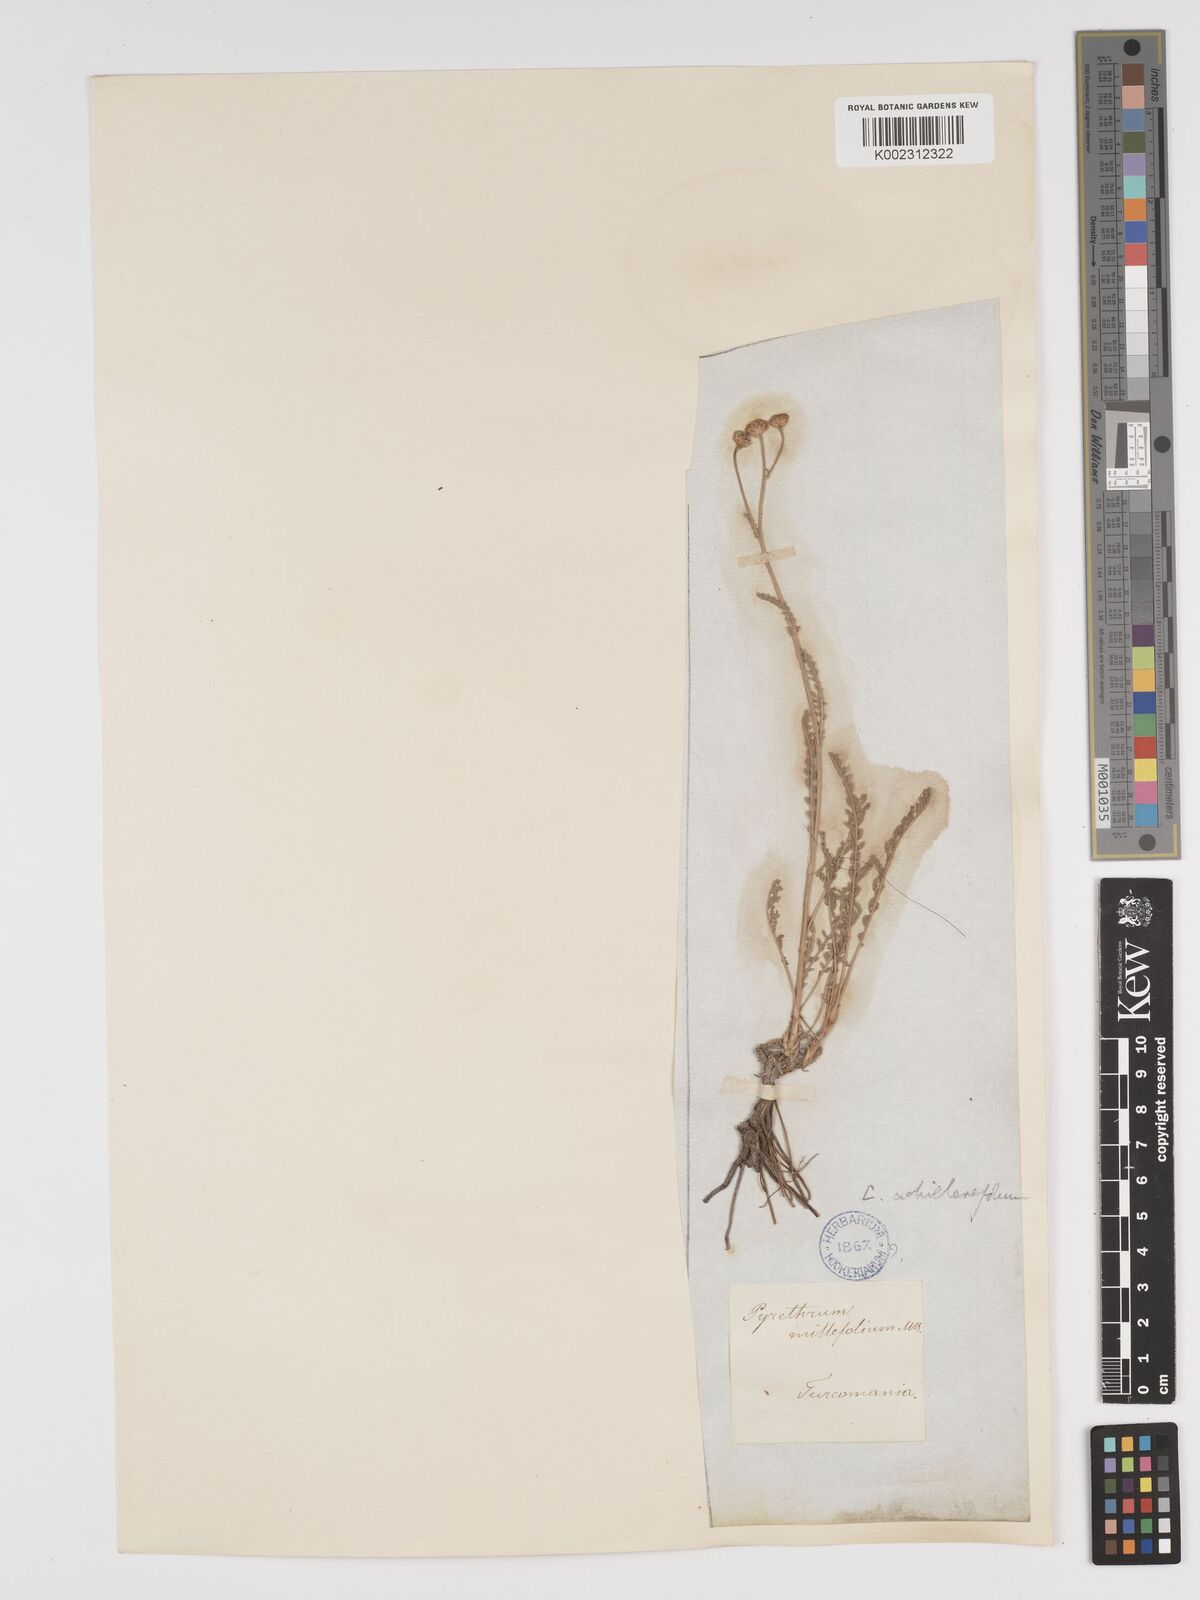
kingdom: Plantae
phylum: Tracheophyta
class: Magnoliopsida
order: Asterales
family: Asteraceae
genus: Tanacetum
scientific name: Tanacetum achilleifolium
